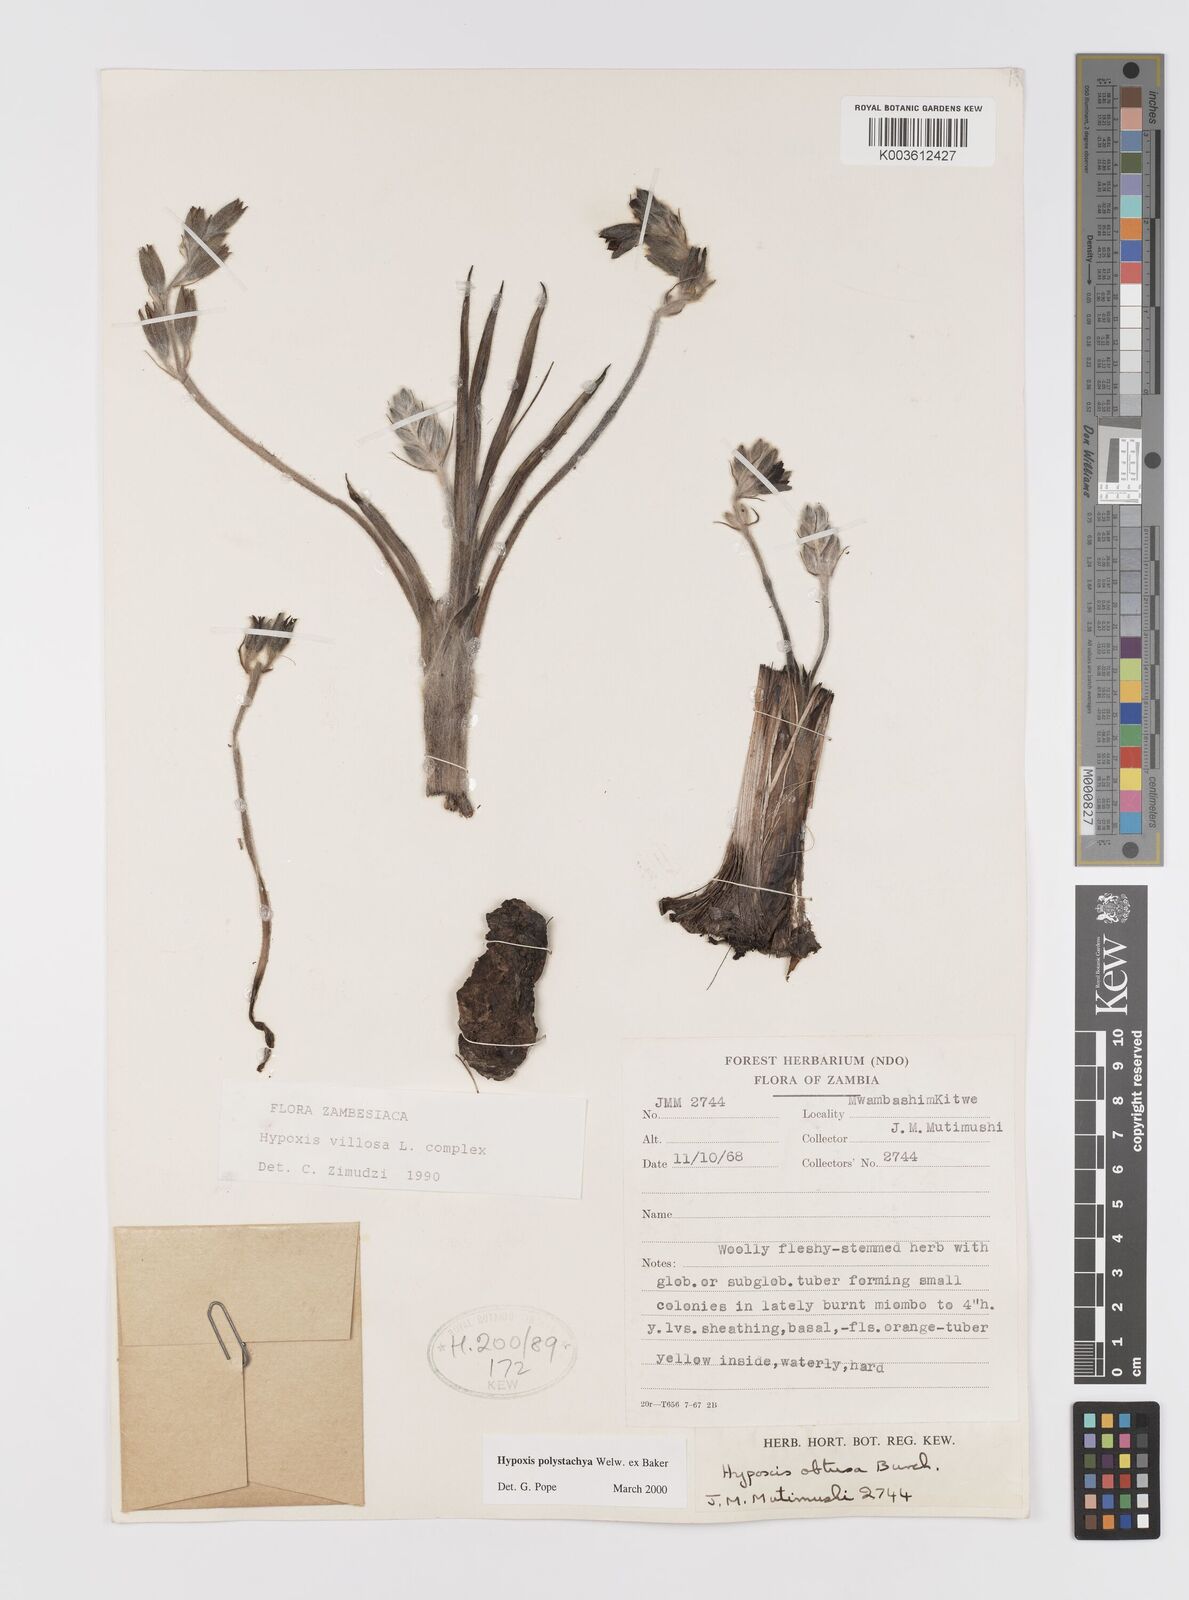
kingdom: Plantae
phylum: Tracheophyta
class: Liliopsida
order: Asparagales
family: Hypoxidaceae
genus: Hypoxis
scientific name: Hypoxis polystachya
